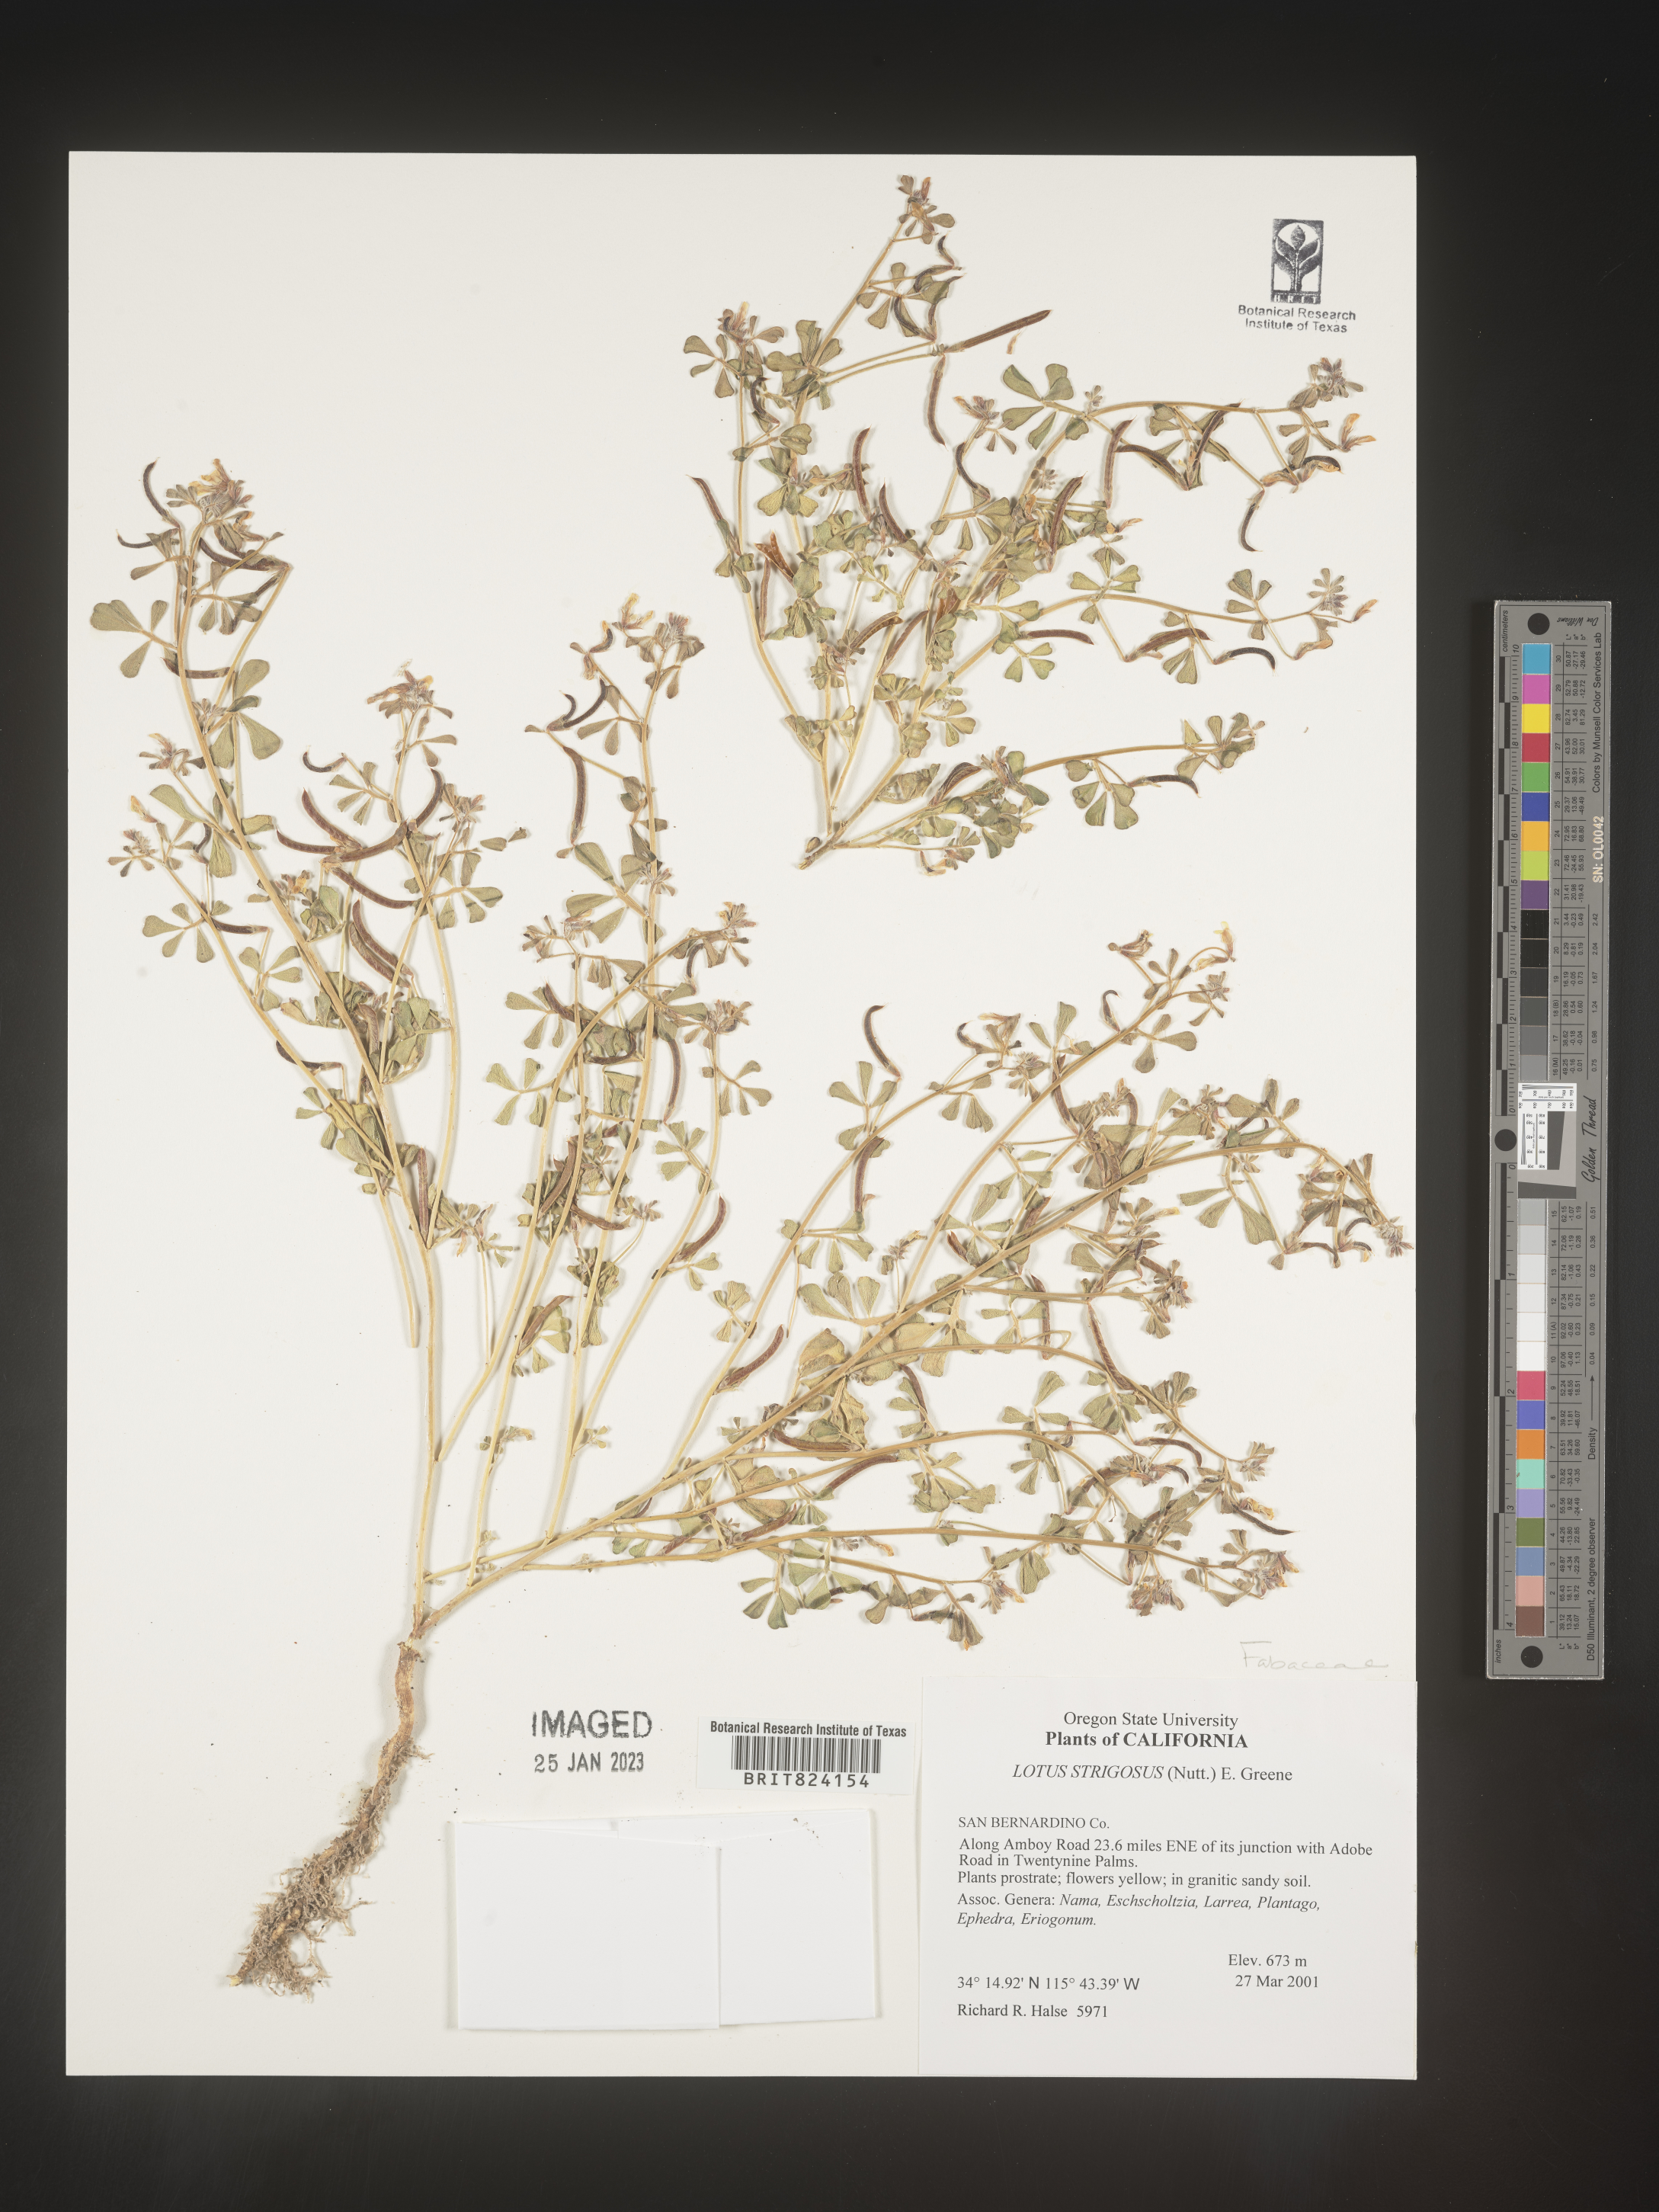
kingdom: Plantae
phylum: Tracheophyta
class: Magnoliopsida
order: Fabales
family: Fabaceae
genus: Lotus
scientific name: Lotus
